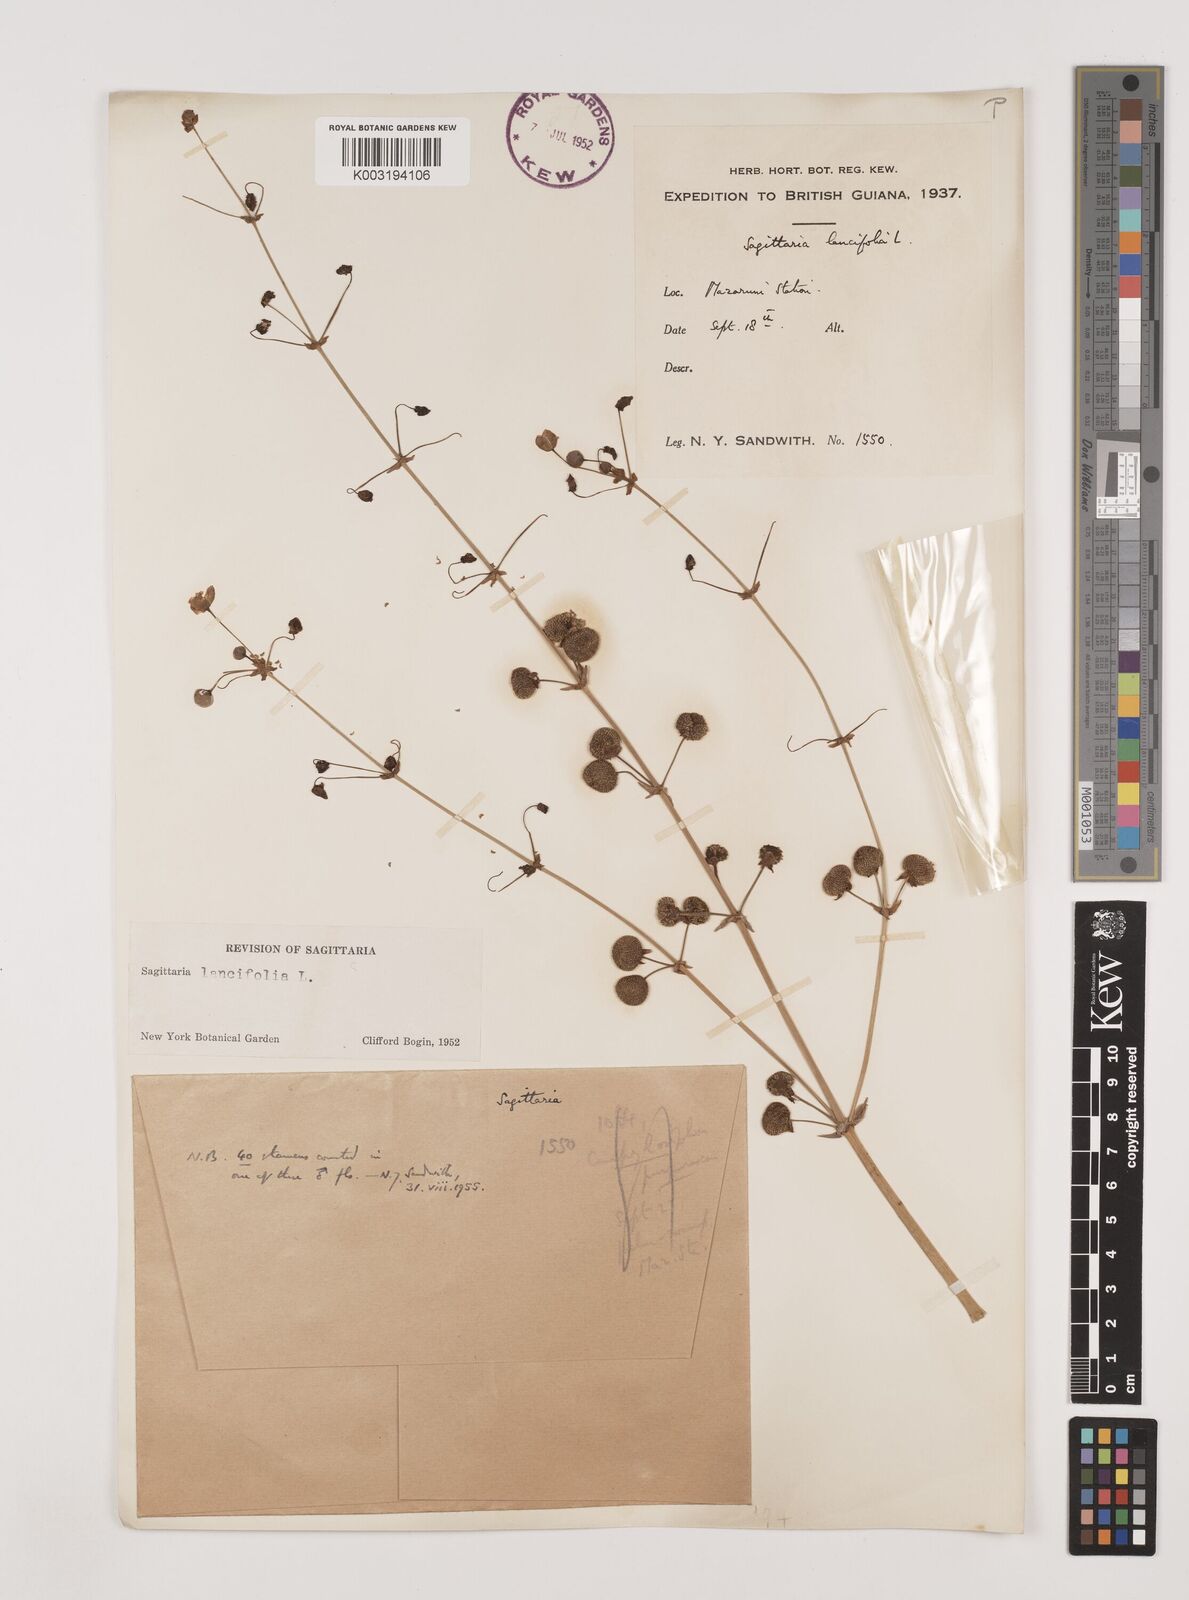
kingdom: Plantae
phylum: Tracheophyta
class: Liliopsida
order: Alismatales
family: Alismataceae
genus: Sagittaria
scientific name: Sagittaria lancifolia
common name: Lance-leaf arrowhead
